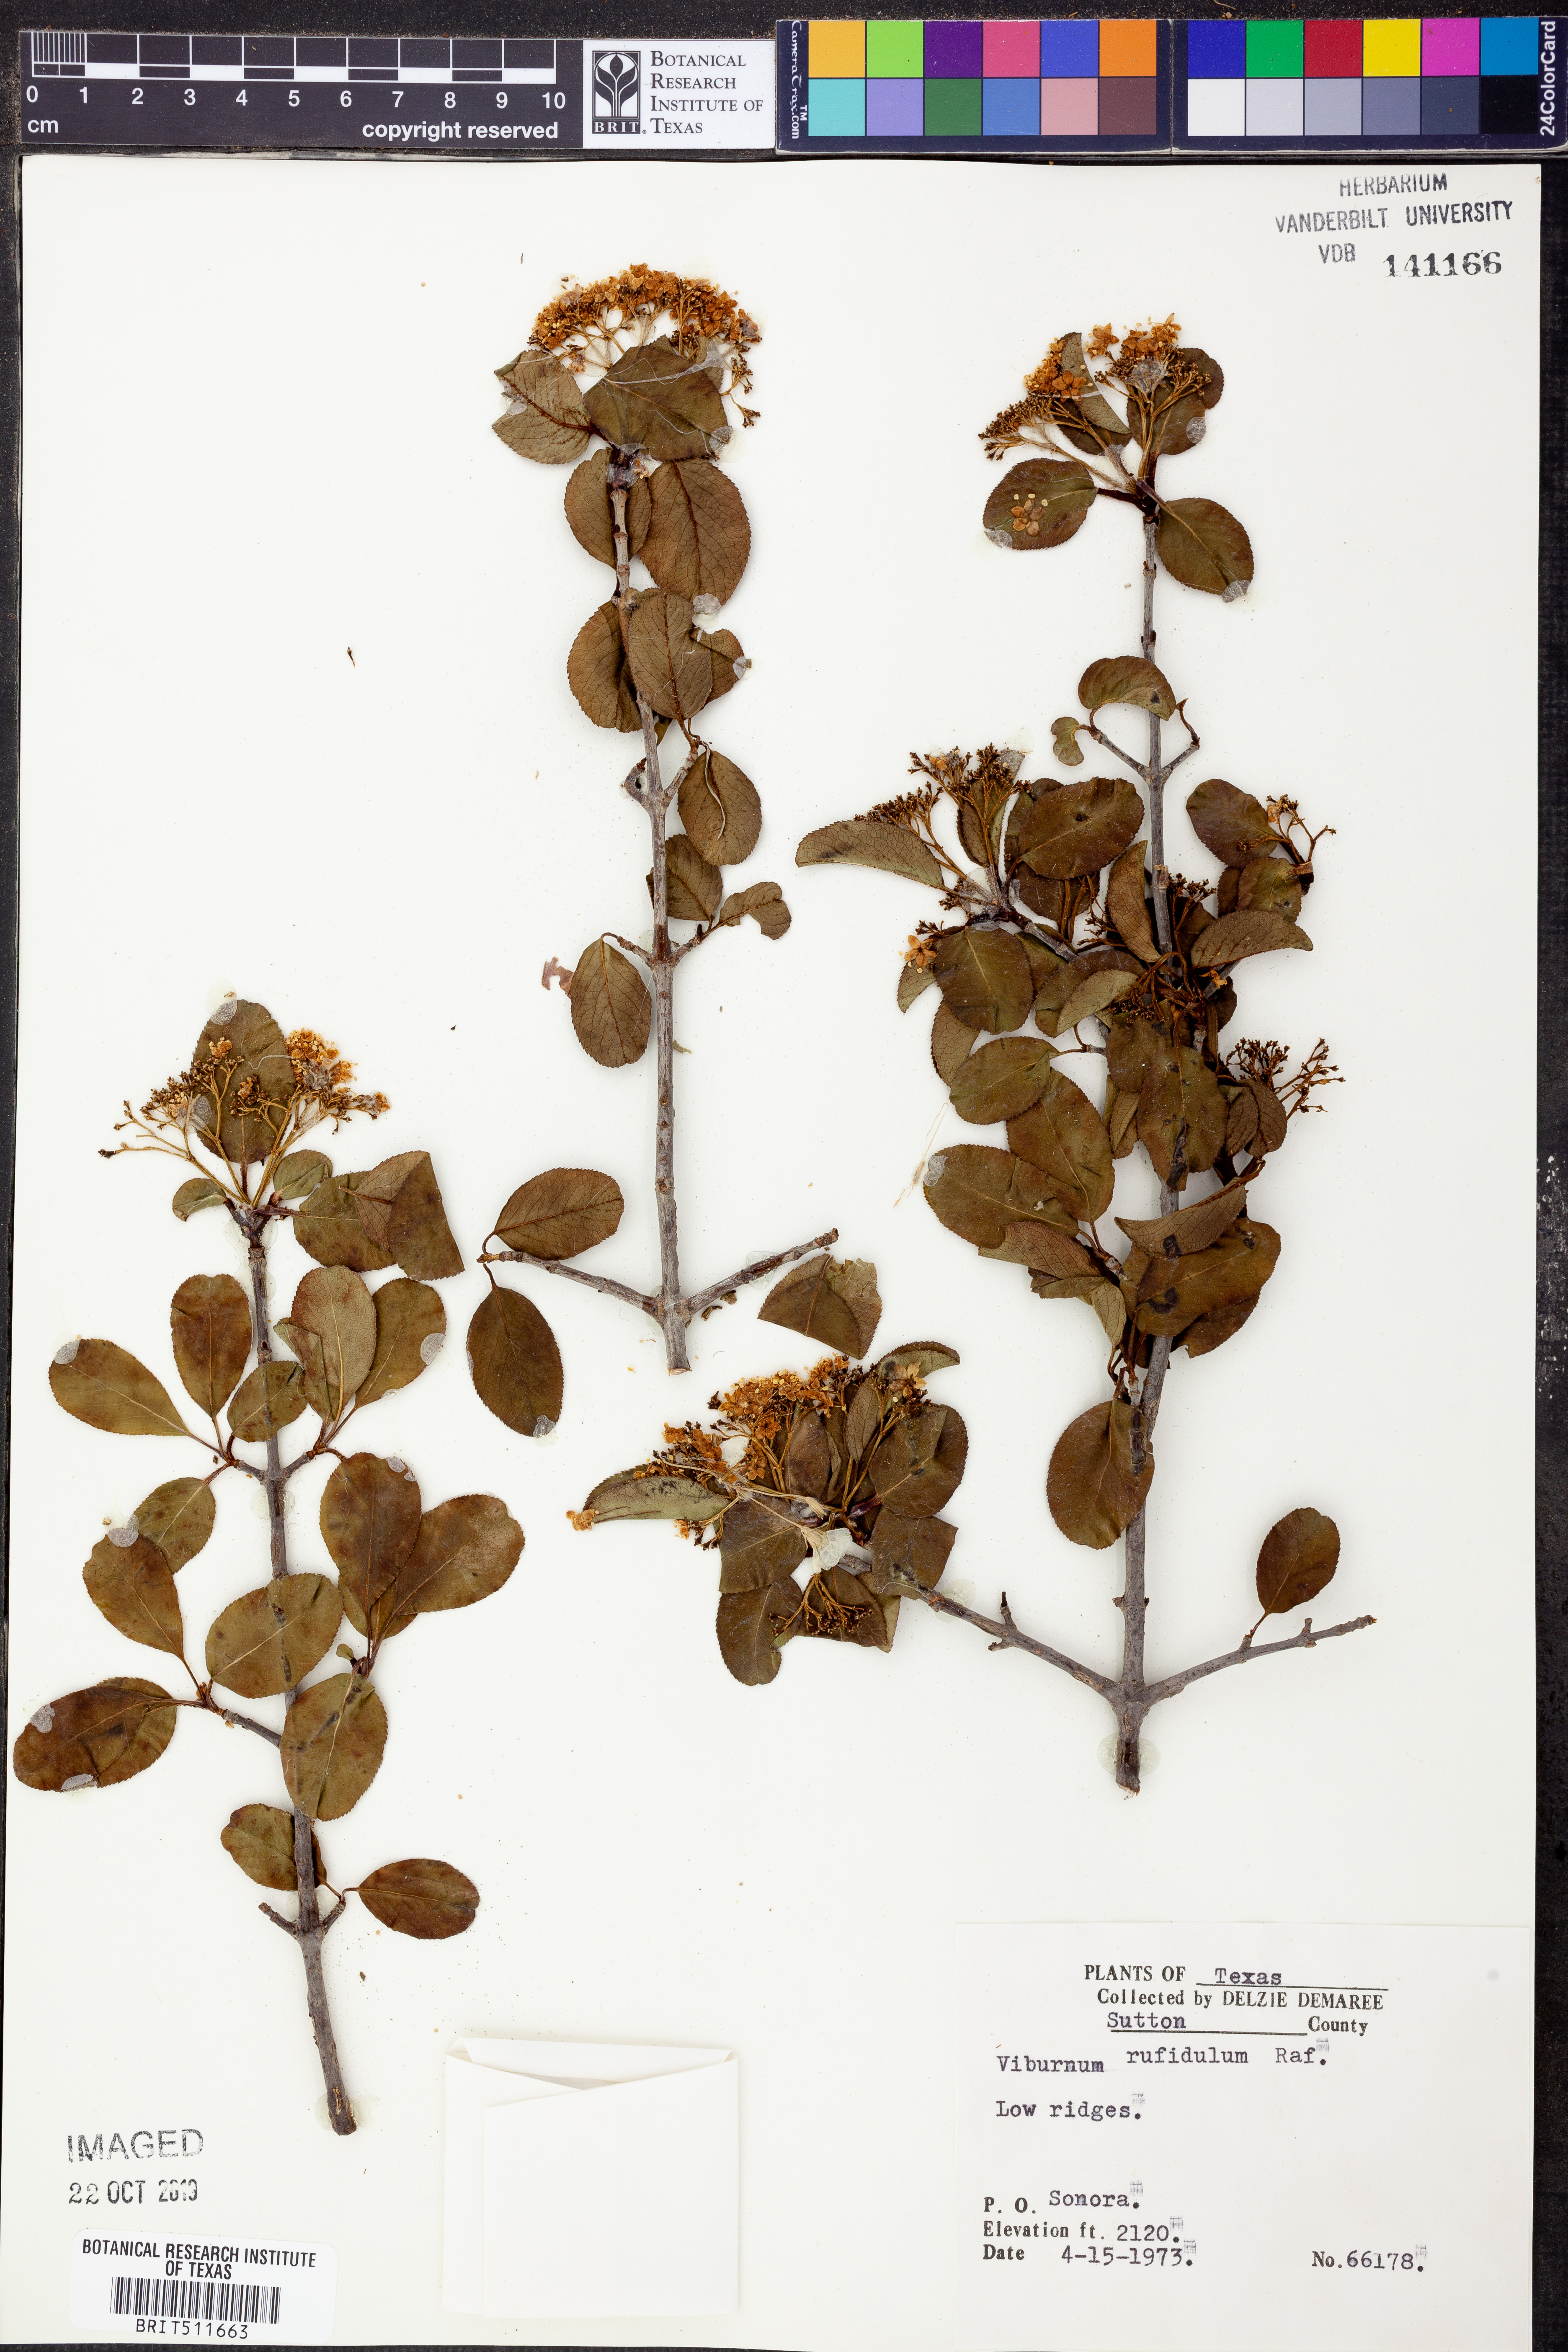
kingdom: Plantae
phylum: Tracheophyta
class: Magnoliopsida
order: Dipsacales
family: Viburnaceae
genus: Viburnum
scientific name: Viburnum rufidulum
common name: Blue haw
